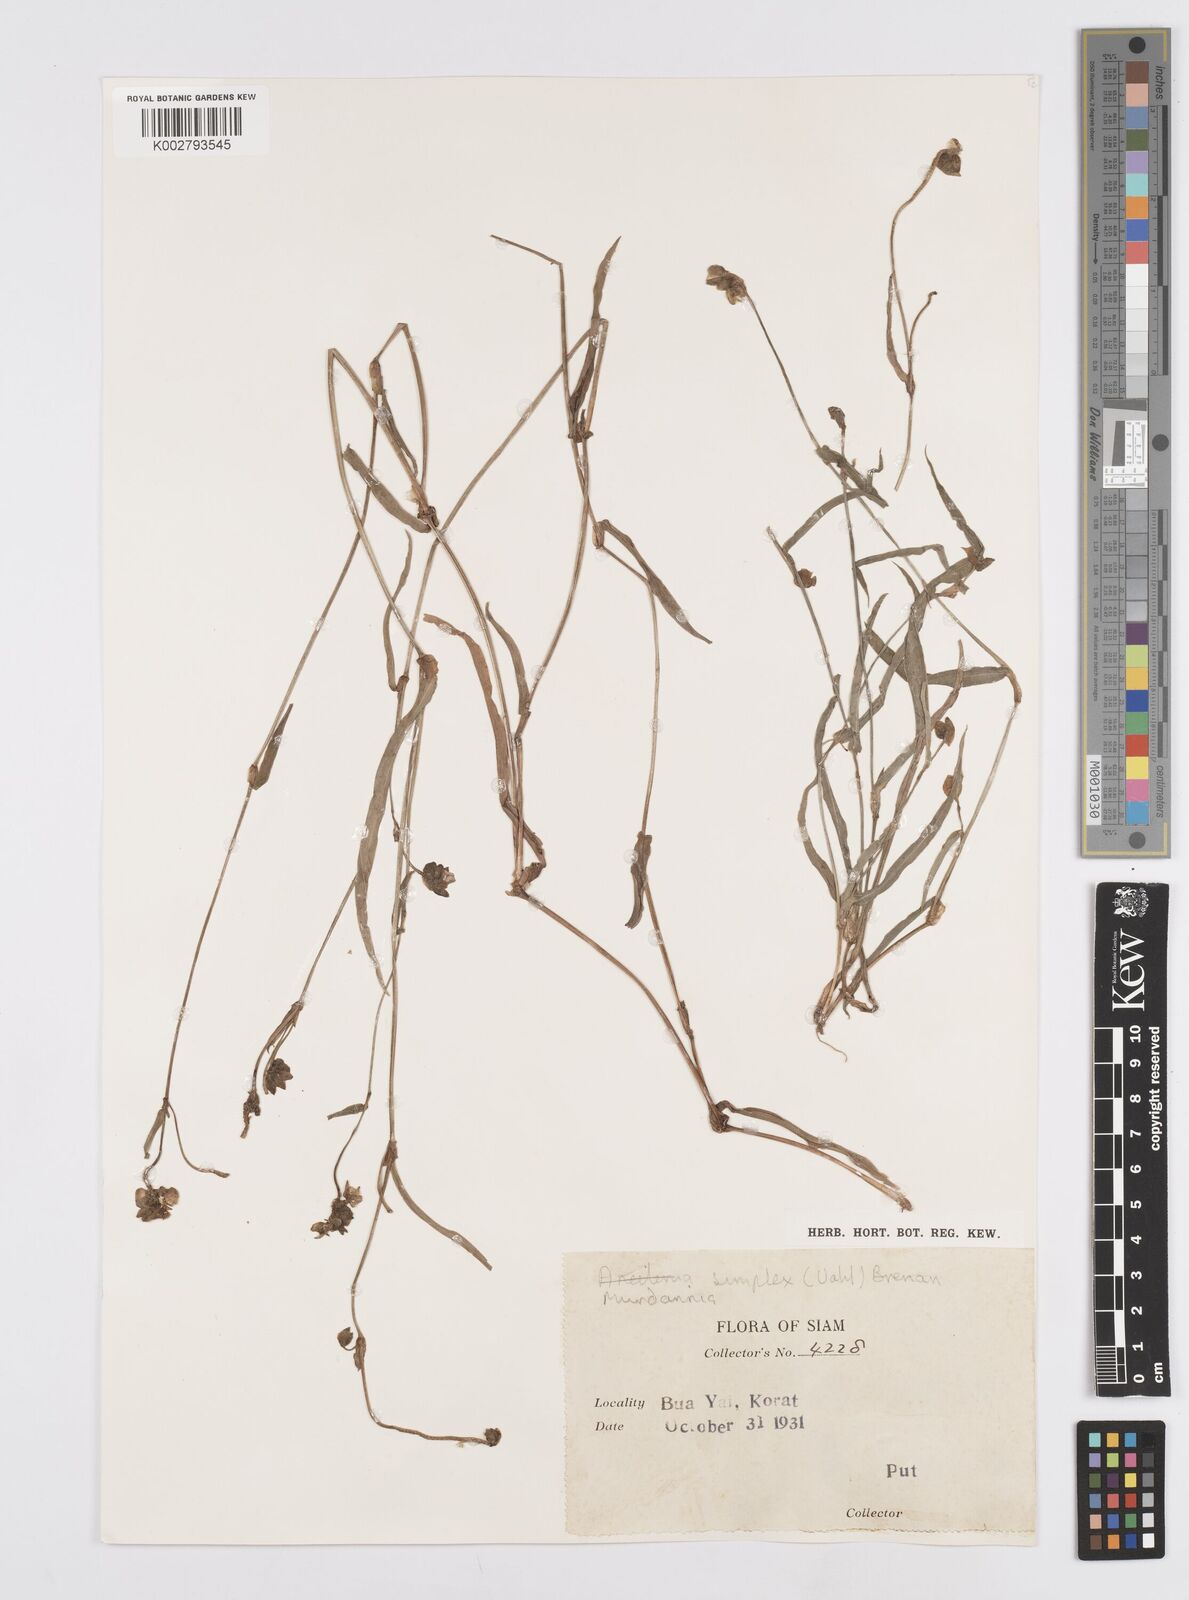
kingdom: Plantae
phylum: Tracheophyta
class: Liliopsida
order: Commelinales
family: Commelinaceae
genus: Murdannia
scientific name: Murdannia simplex
